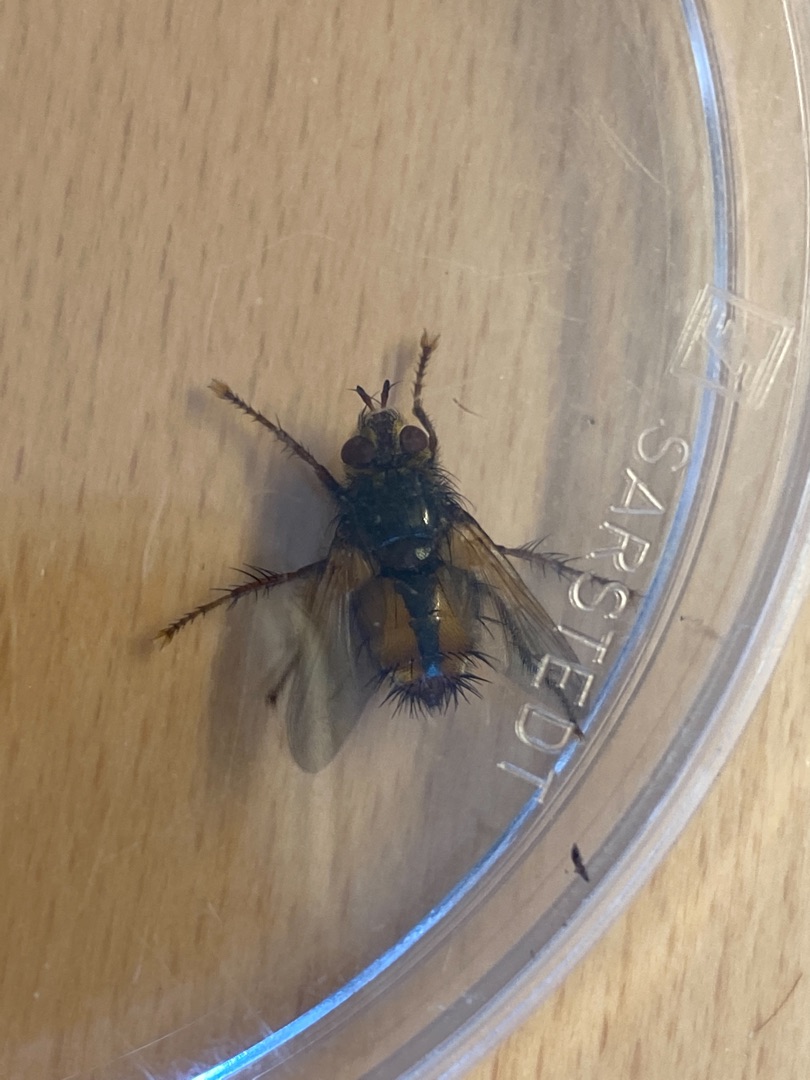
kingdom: Animalia
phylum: Arthropoda
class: Insecta
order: Diptera
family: Tachinidae
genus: Tachina
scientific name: Tachina fera
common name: Mellemfluen oskar
